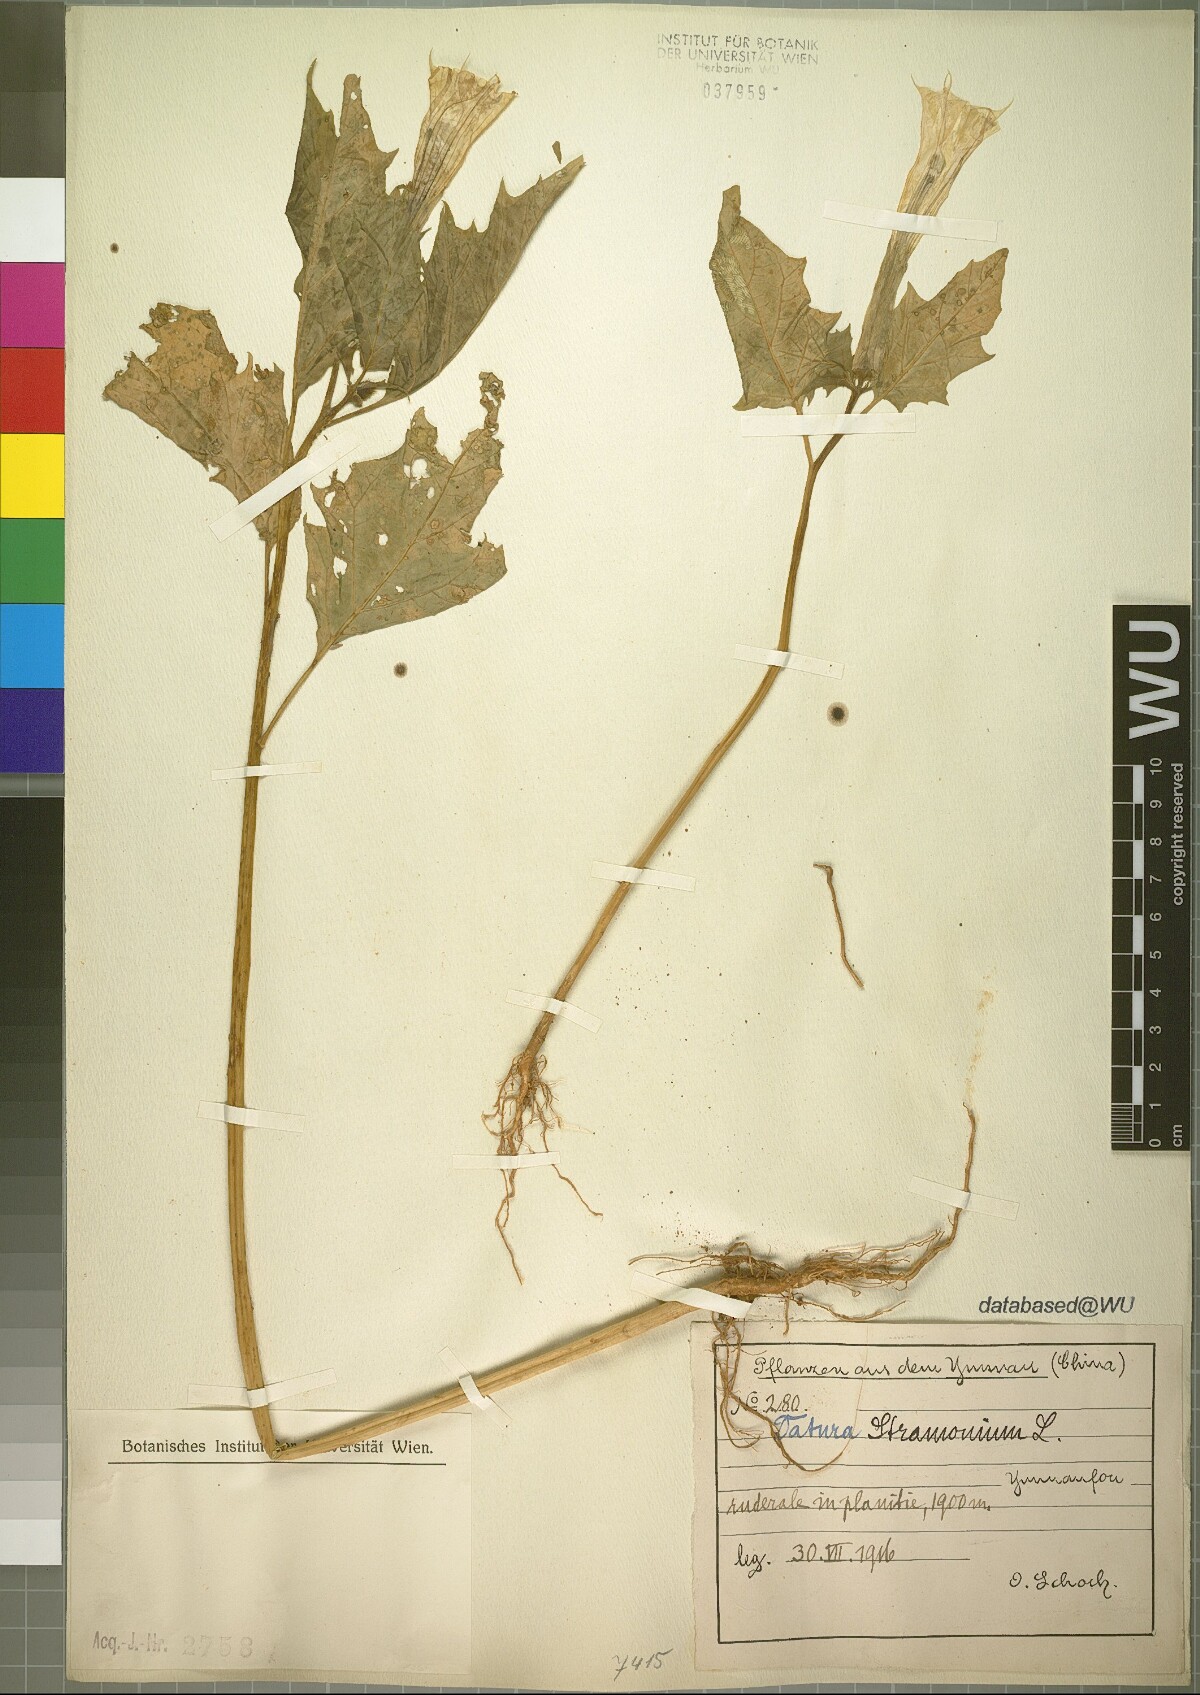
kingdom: Plantae
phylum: Tracheophyta
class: Magnoliopsida
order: Solanales
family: Solanaceae
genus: Datura
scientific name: Datura stramonium
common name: Thorn-apple
